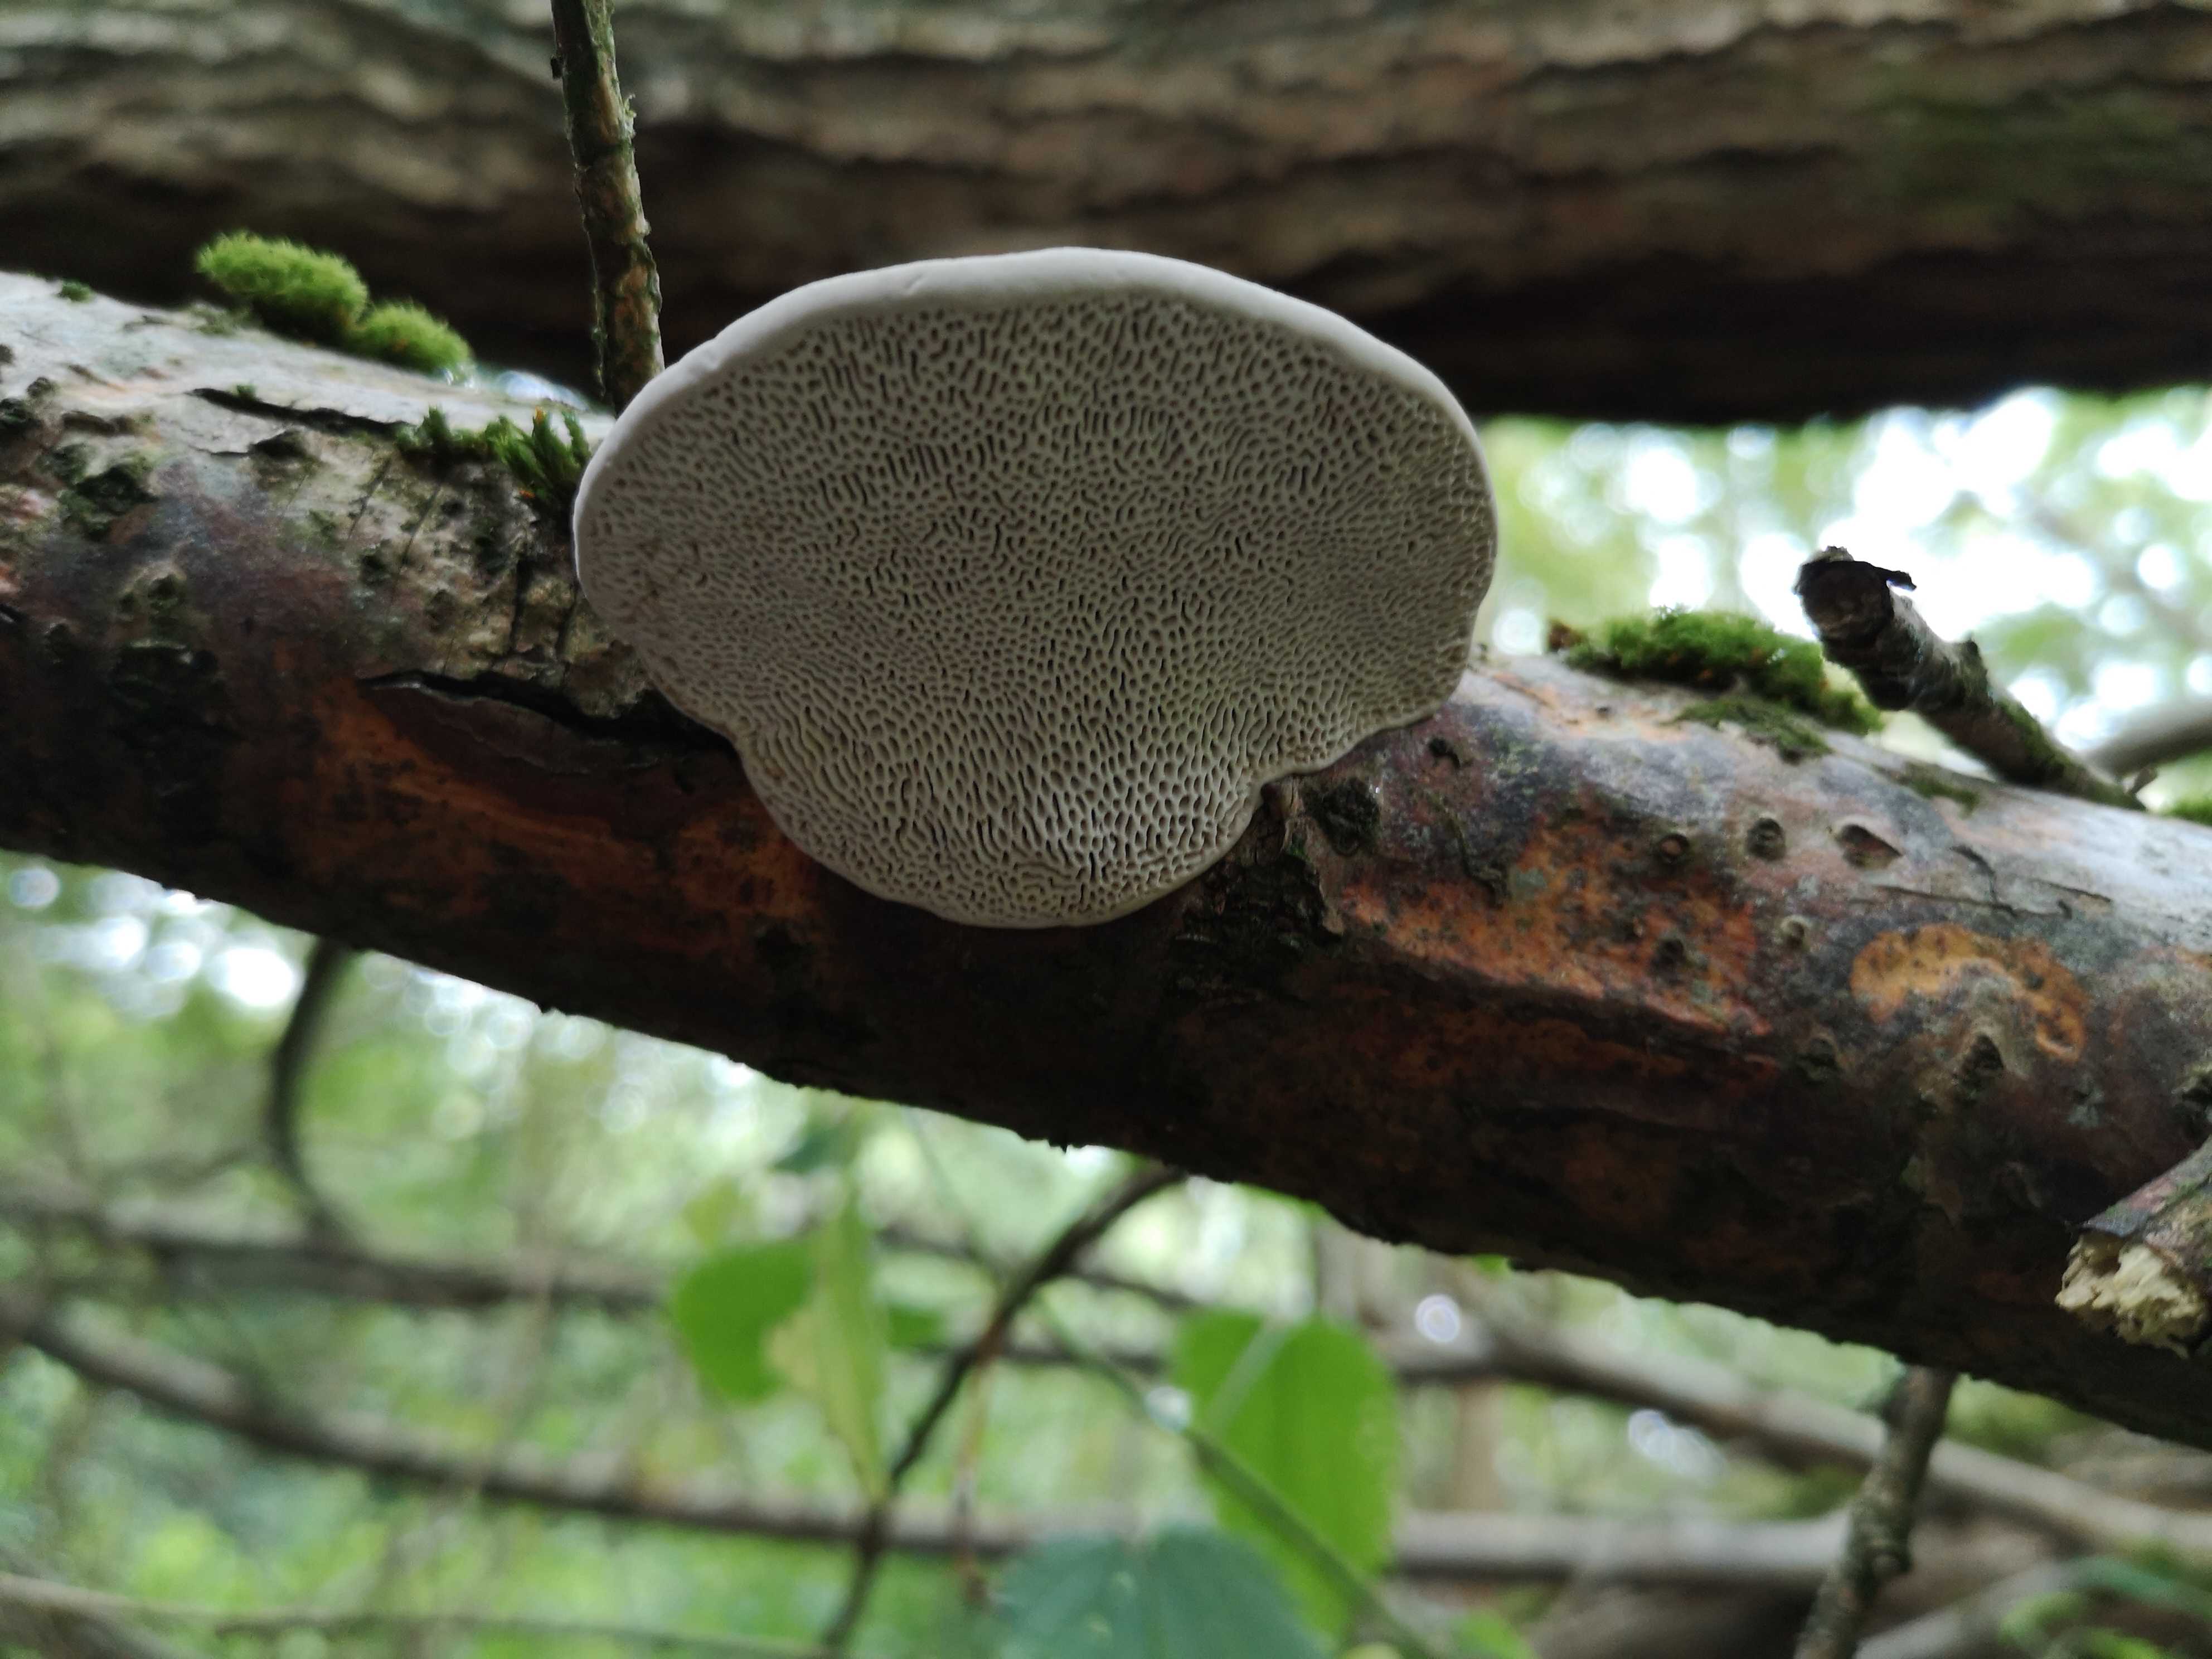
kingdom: Fungi
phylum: Basidiomycota
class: Agaricomycetes
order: Polyporales
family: Polyporaceae
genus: Daedaleopsis
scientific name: Daedaleopsis confragosa
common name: rødmende læderporesvamp
